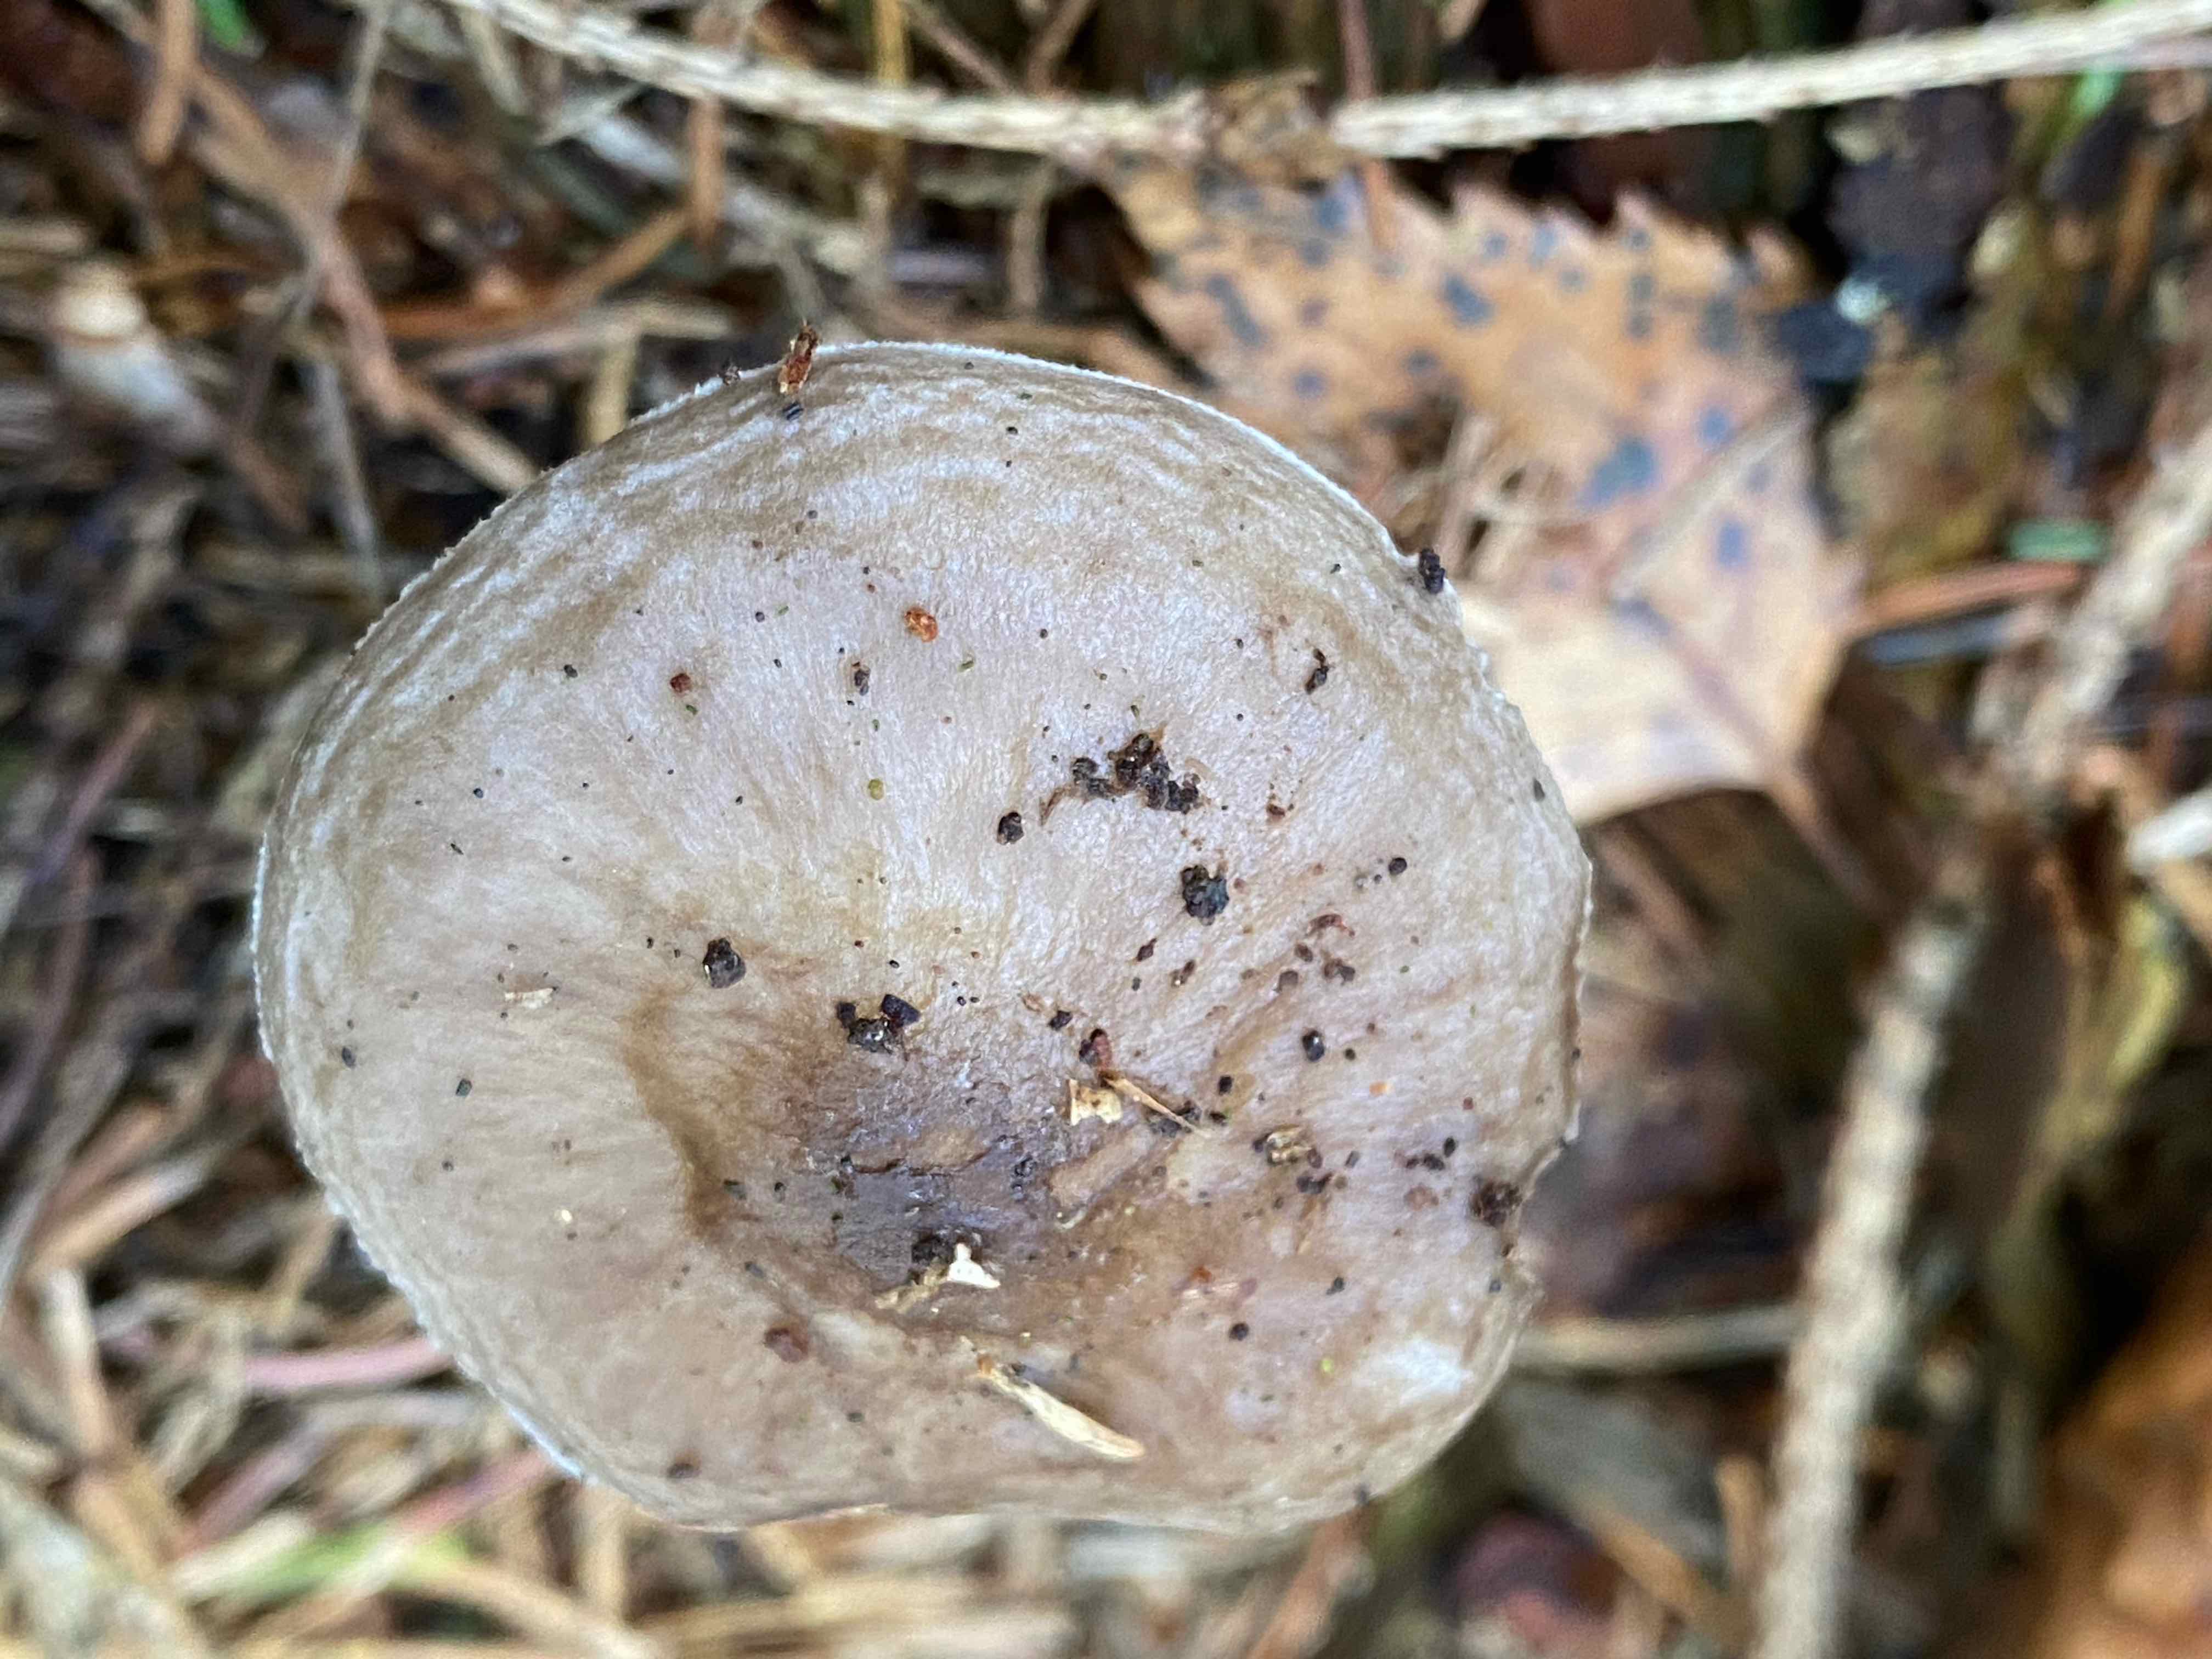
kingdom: Fungi
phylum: Basidiomycota
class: Agaricomycetes
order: Agaricales
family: Pluteaceae
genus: Pluteus
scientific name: Pluteus pouzarianus
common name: plantage-skærmhat
